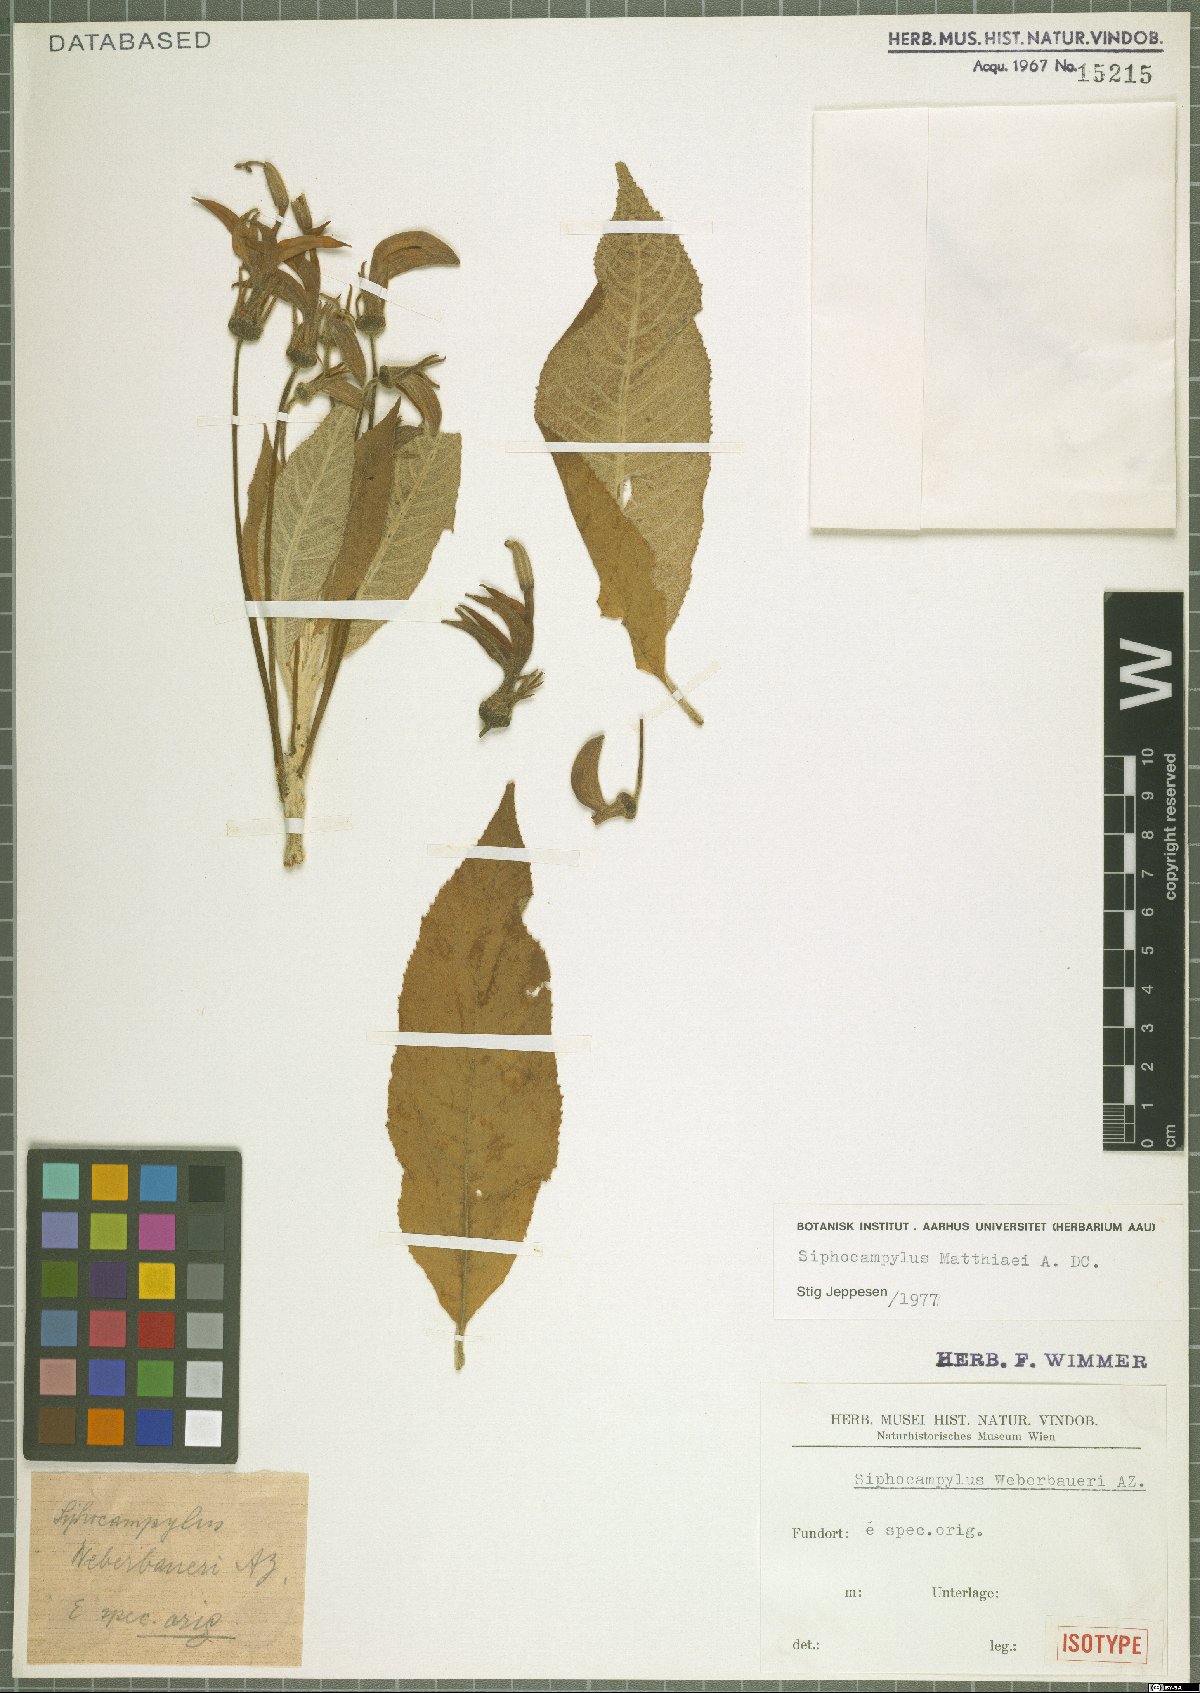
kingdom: Plantae
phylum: Tracheophyta
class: Magnoliopsida
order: Asterales
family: Campanulaceae
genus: Siphocampylus
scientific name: Siphocampylus matthiaei
